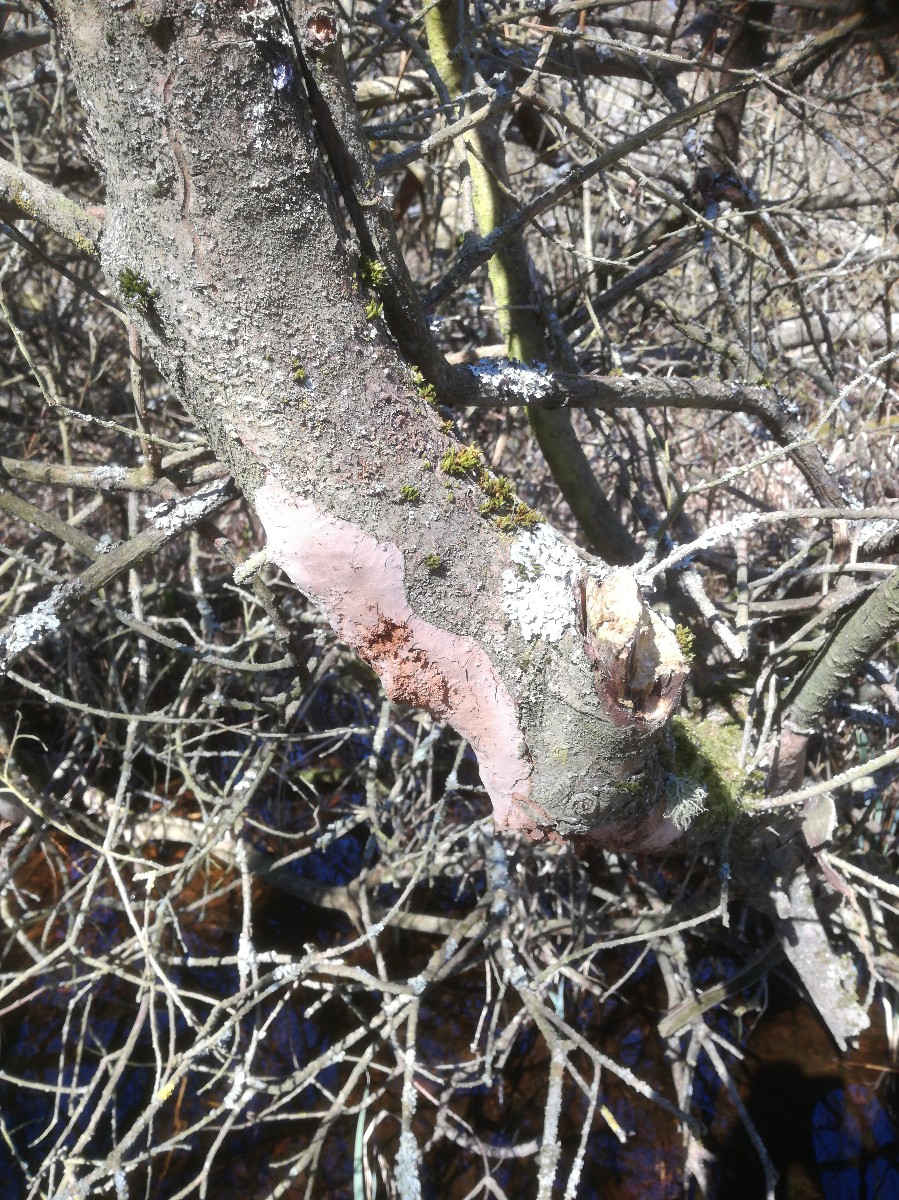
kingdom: Fungi
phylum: Basidiomycota
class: Agaricomycetes
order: Hymenochaetales
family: Hymenochaetaceae
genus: Fomitiporia
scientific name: Fomitiporia punctata
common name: pude-ildporesvamp
